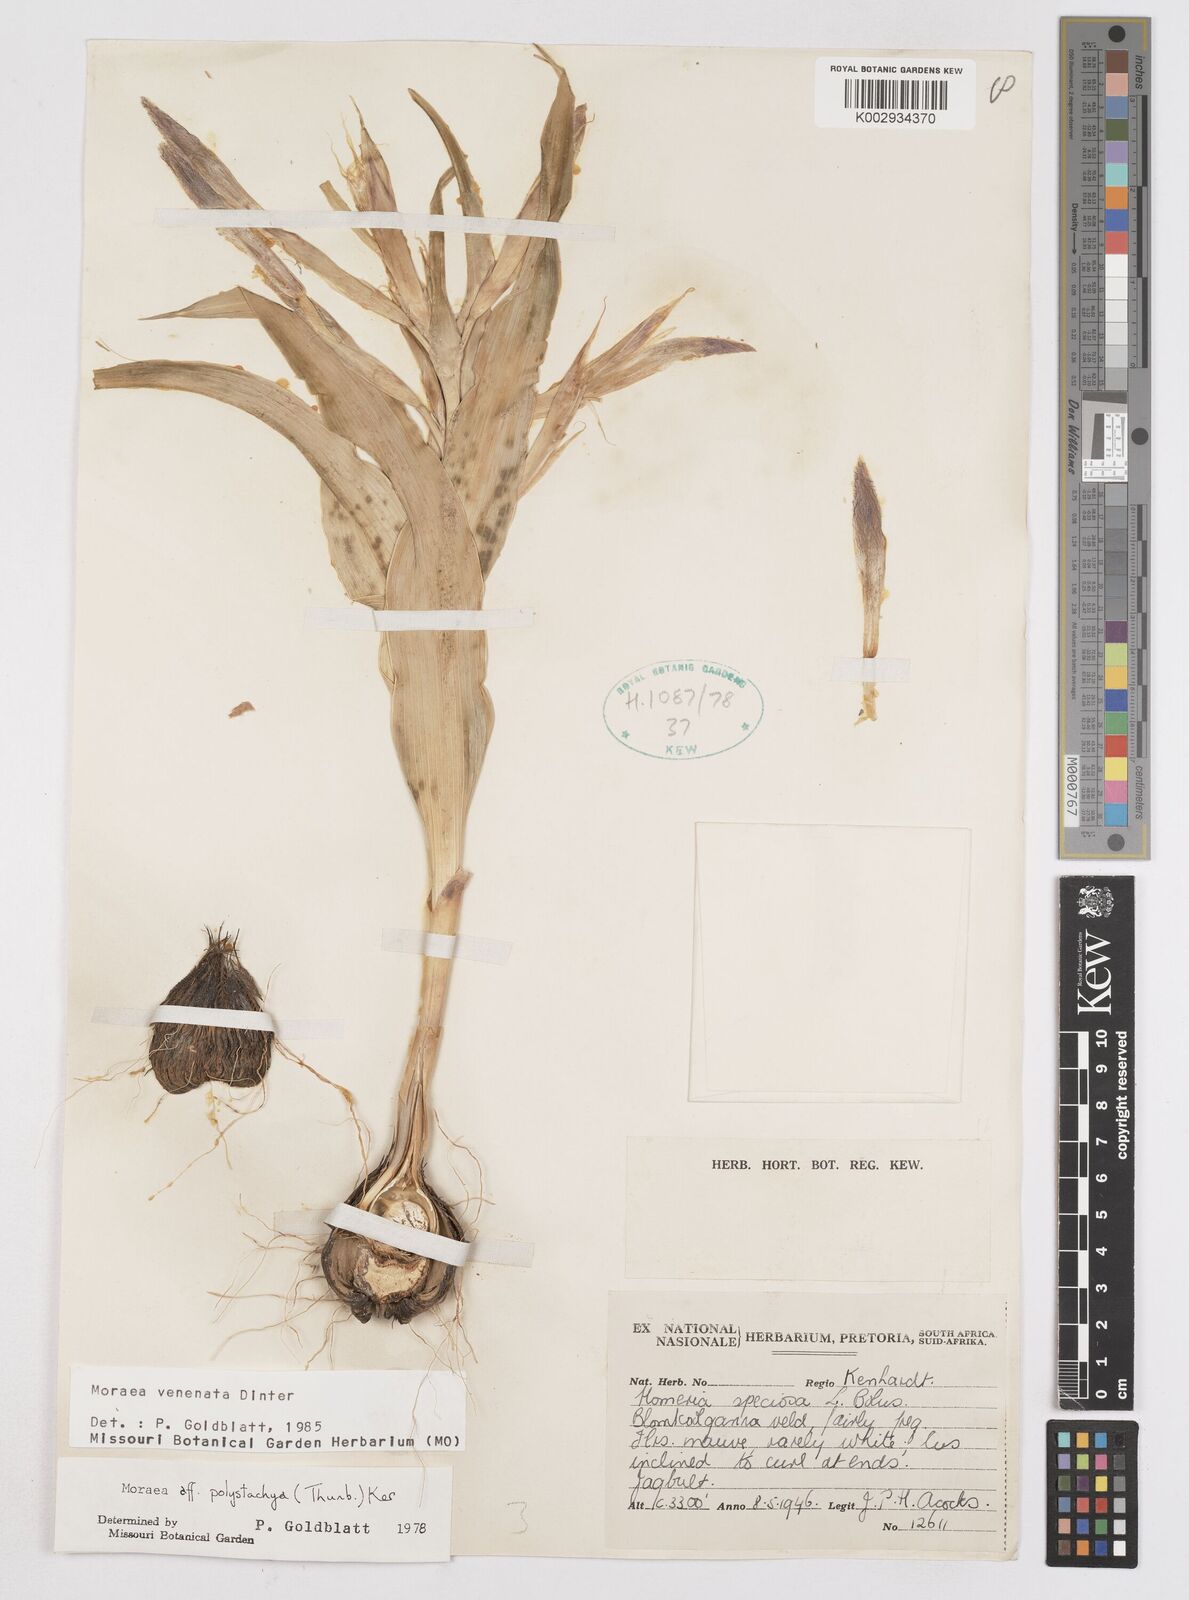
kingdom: Plantae
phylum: Tracheophyta
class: Liliopsida
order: Asparagales
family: Iridaceae
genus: Moraea
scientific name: Moraea venenata
